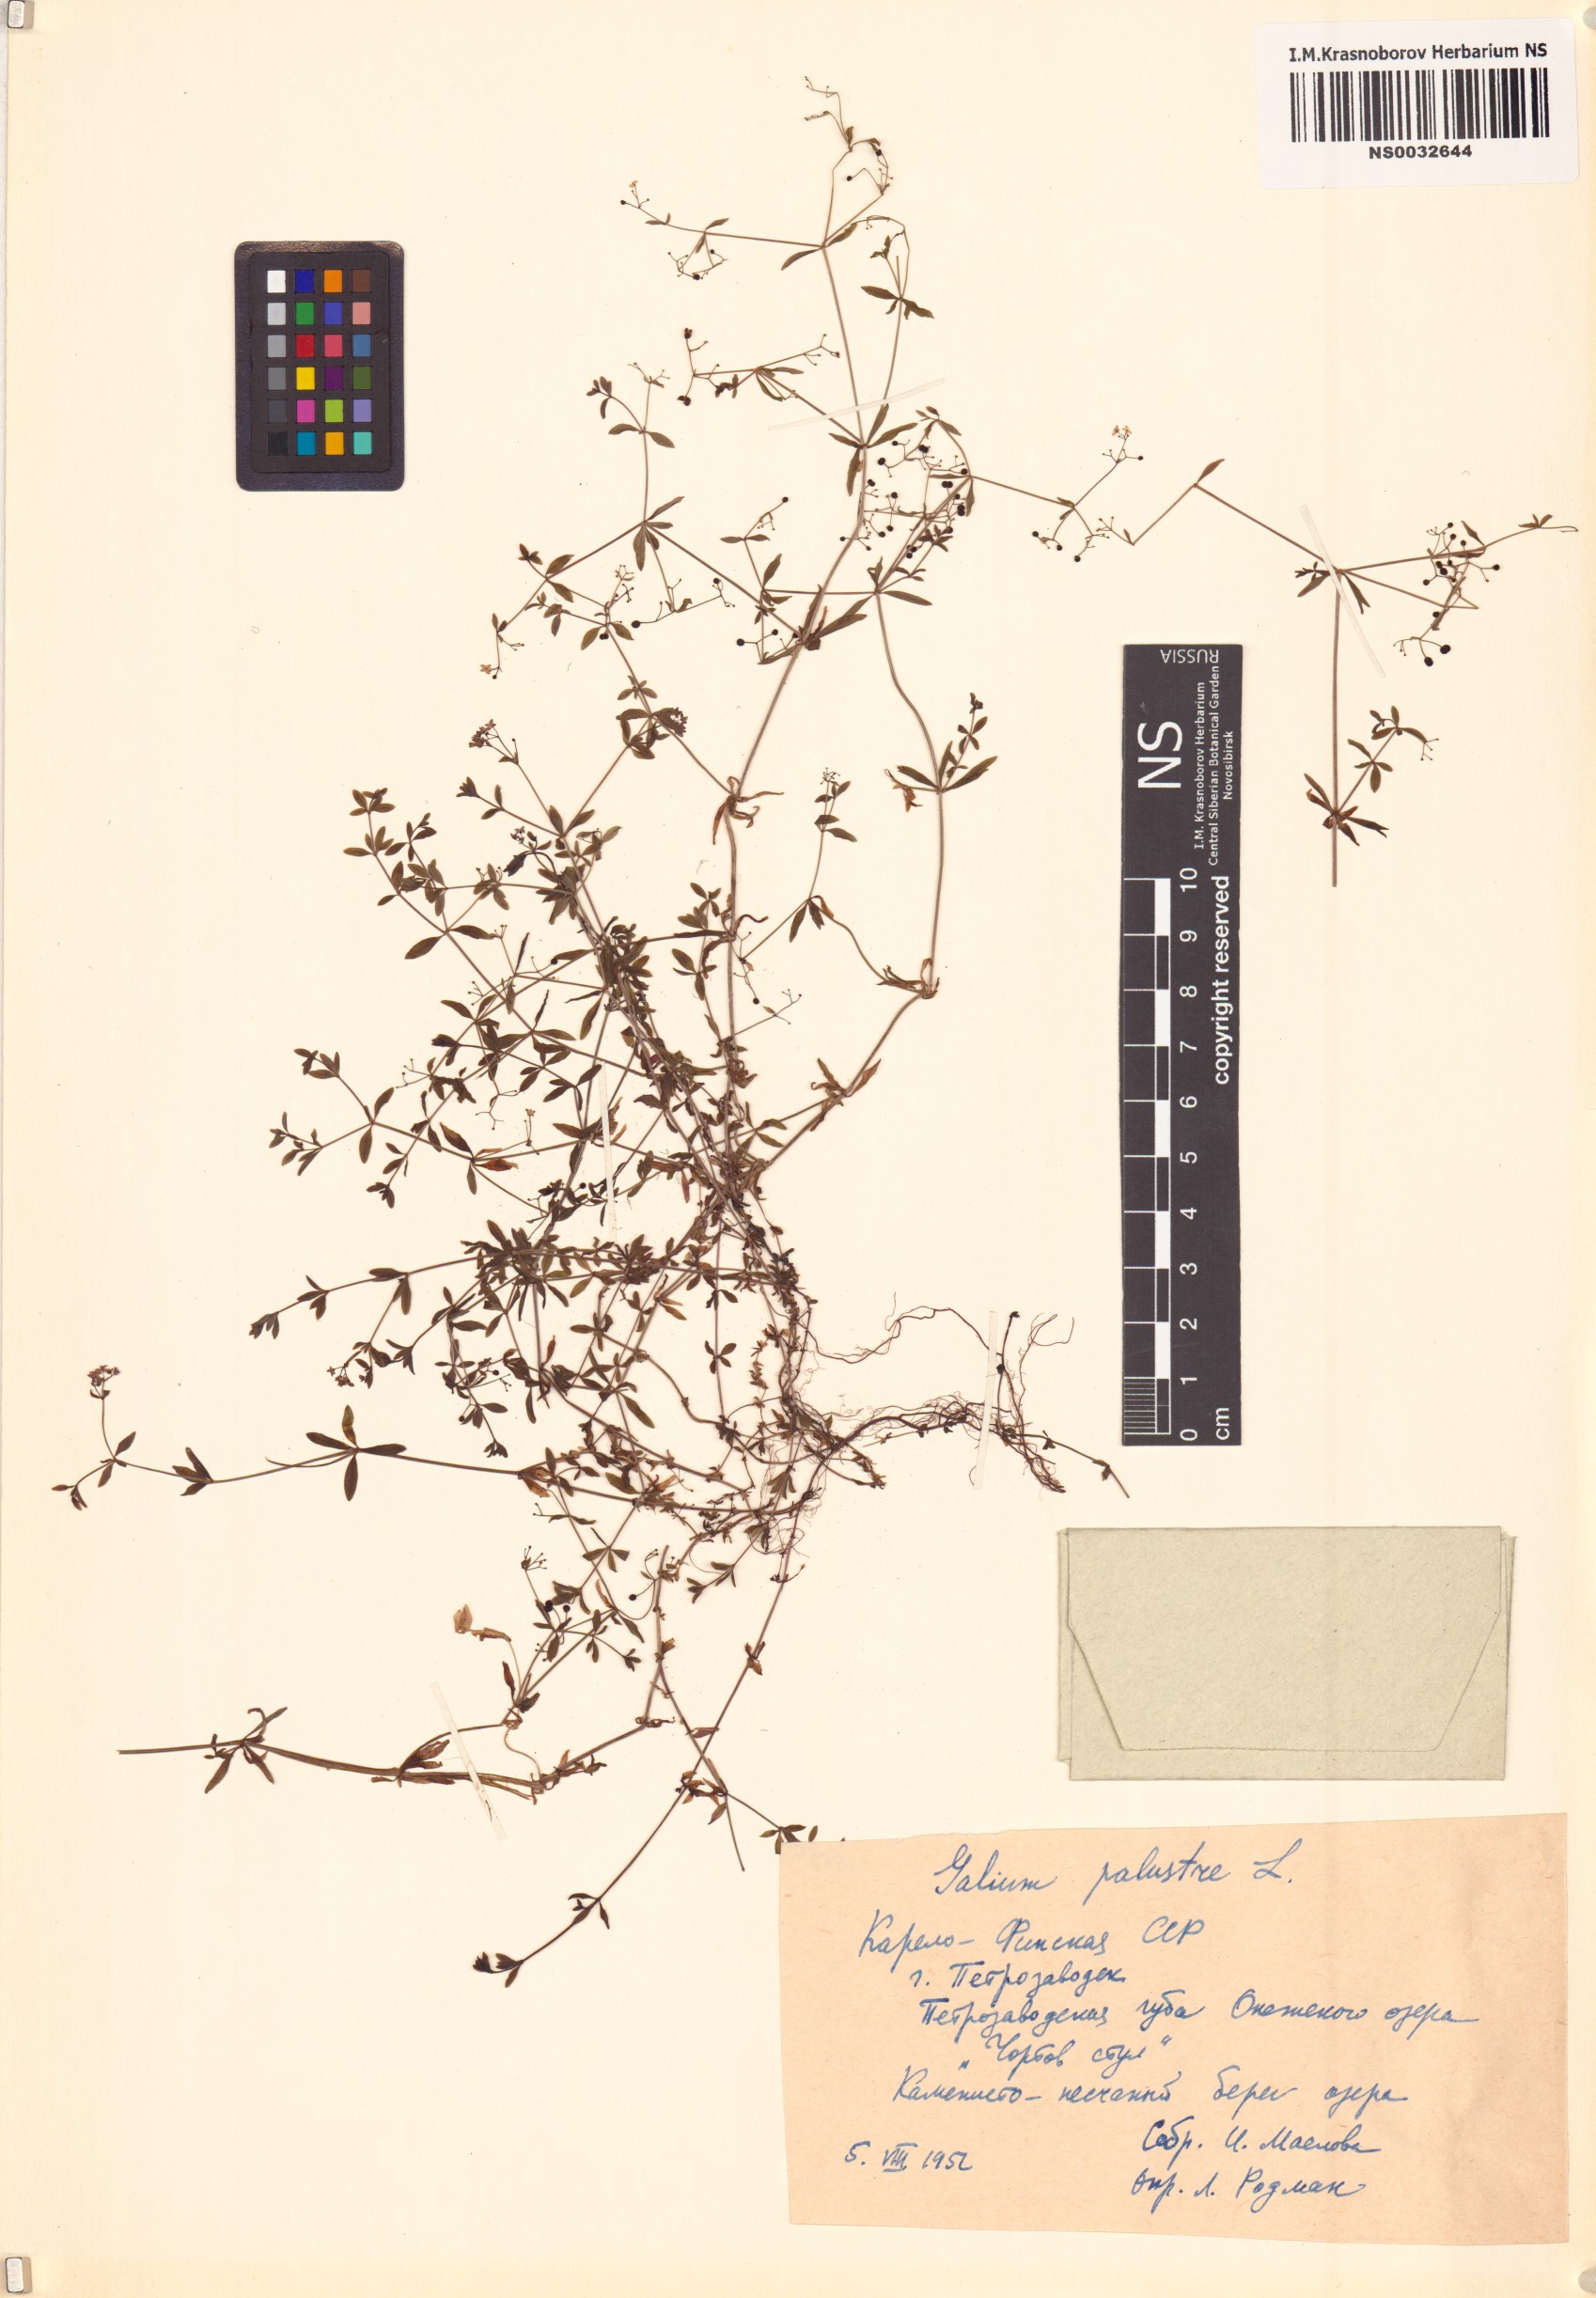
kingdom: Plantae
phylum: Tracheophyta
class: Magnoliopsida
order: Gentianales
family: Rubiaceae
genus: Galium
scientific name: Galium palustre
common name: Common marsh-bedstraw
